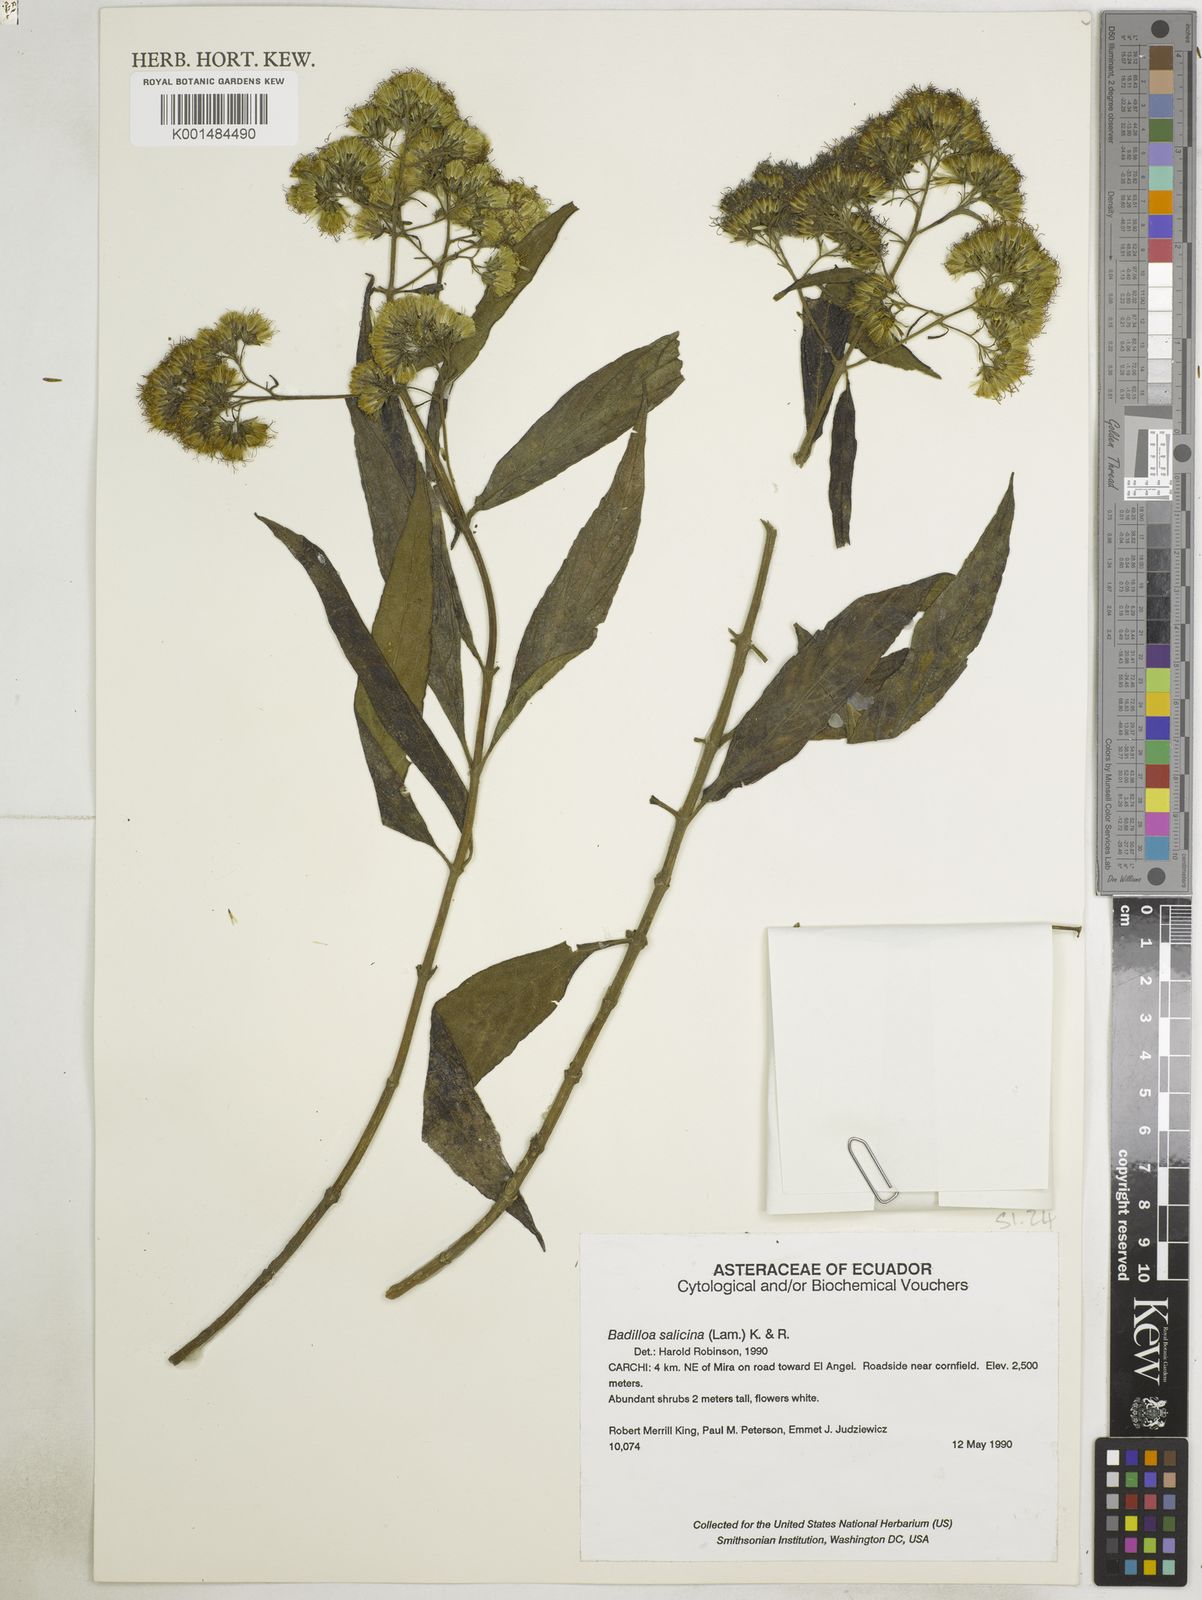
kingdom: Plantae
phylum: Tracheophyta
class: Magnoliopsida
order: Asterales
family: Asteraceae
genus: Badilloa
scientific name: Badilloa salicina
